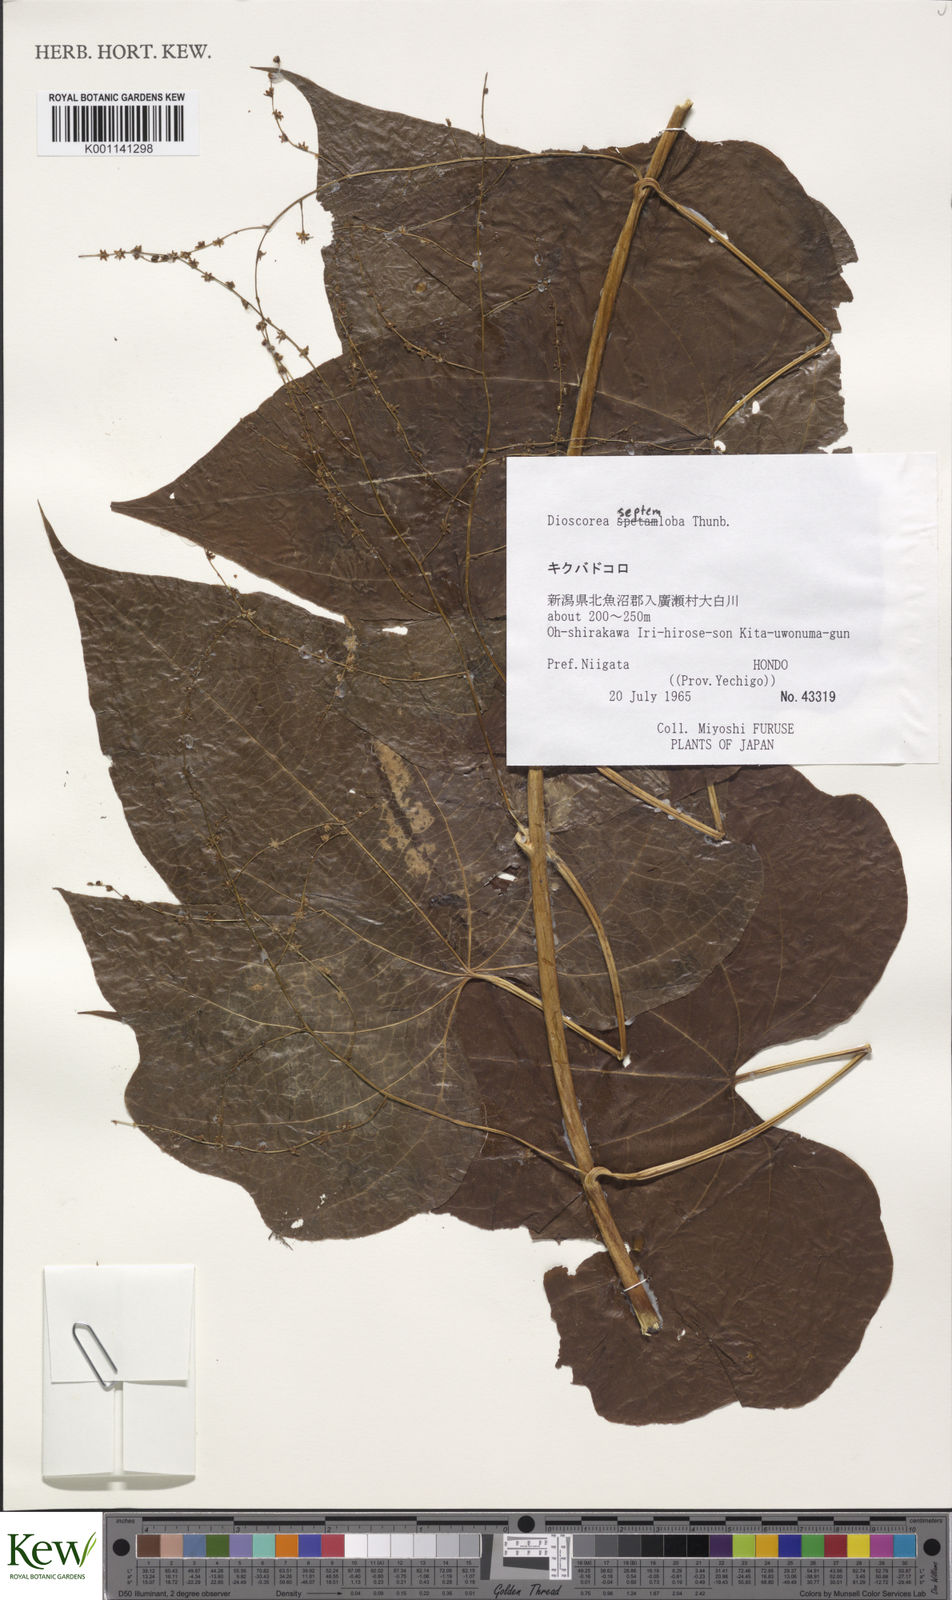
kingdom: Plantae
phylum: Tracheophyta
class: Liliopsida
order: Dioscoreales
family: Dioscoreaceae
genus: Dioscorea
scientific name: Dioscorea septemloba
